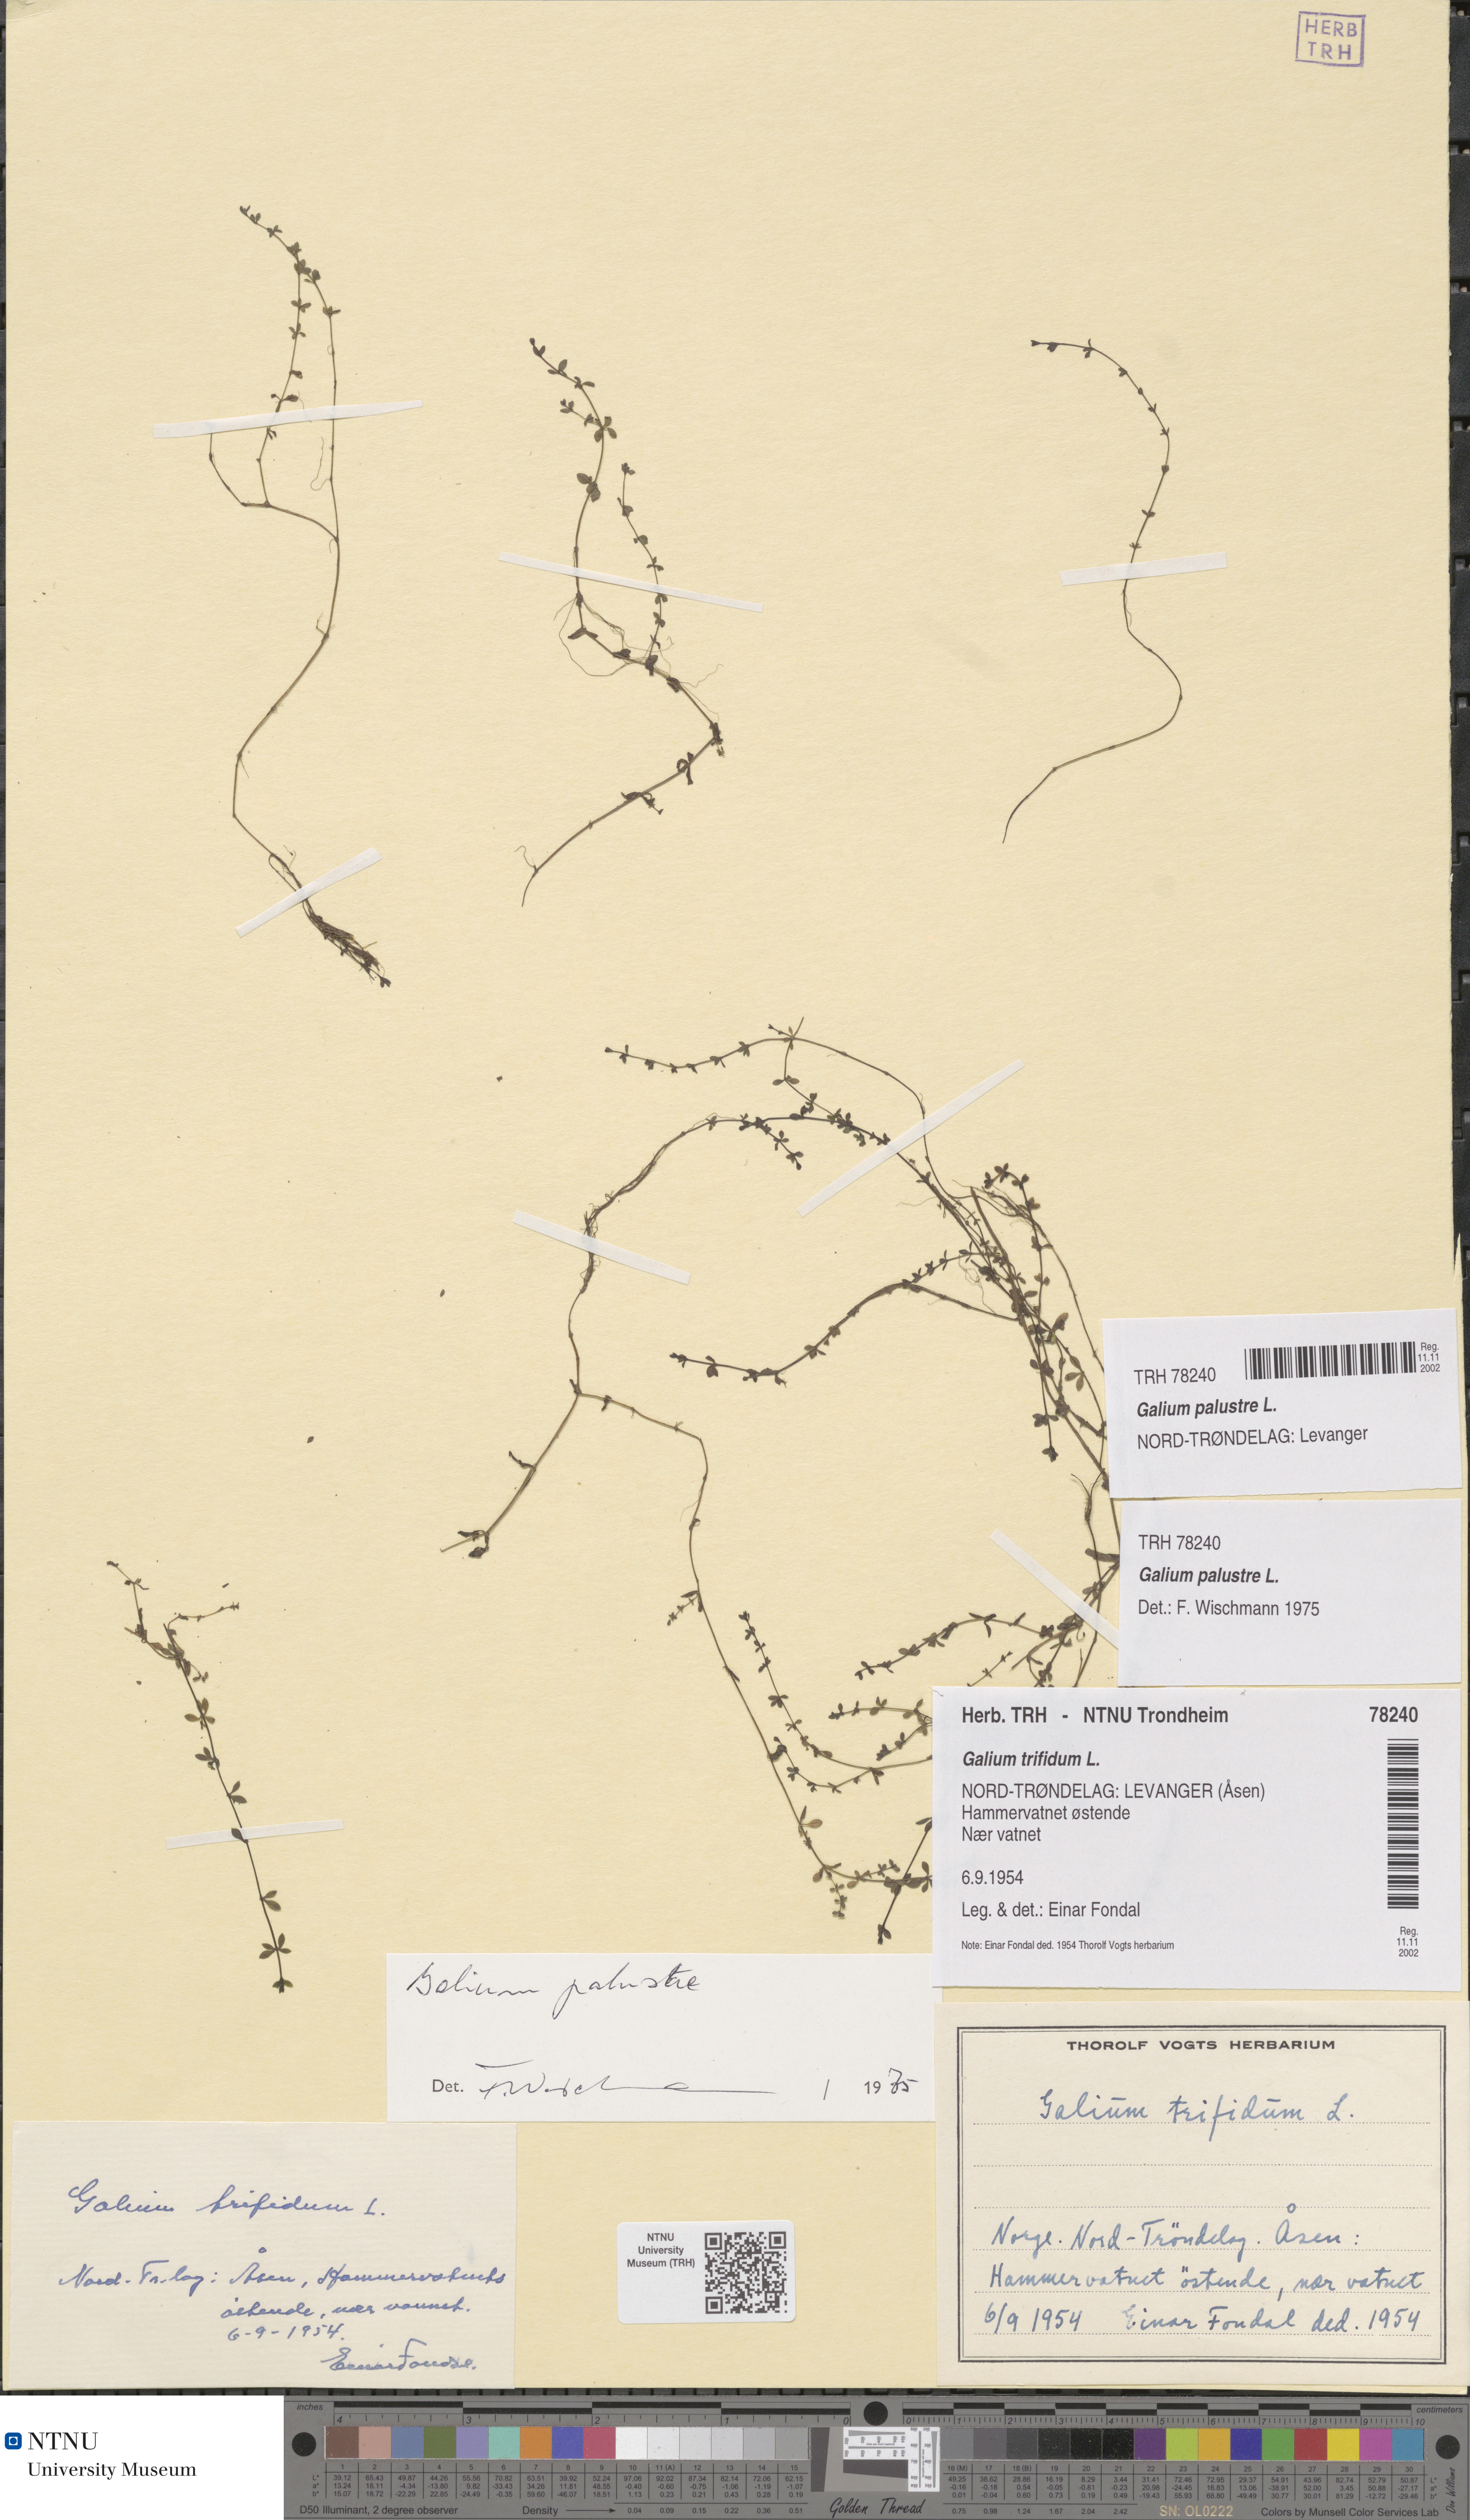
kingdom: Plantae
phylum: Tracheophyta
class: Magnoliopsida
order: Gentianales
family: Rubiaceae
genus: Galium
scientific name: Galium palustre
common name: Common marsh-bedstraw
